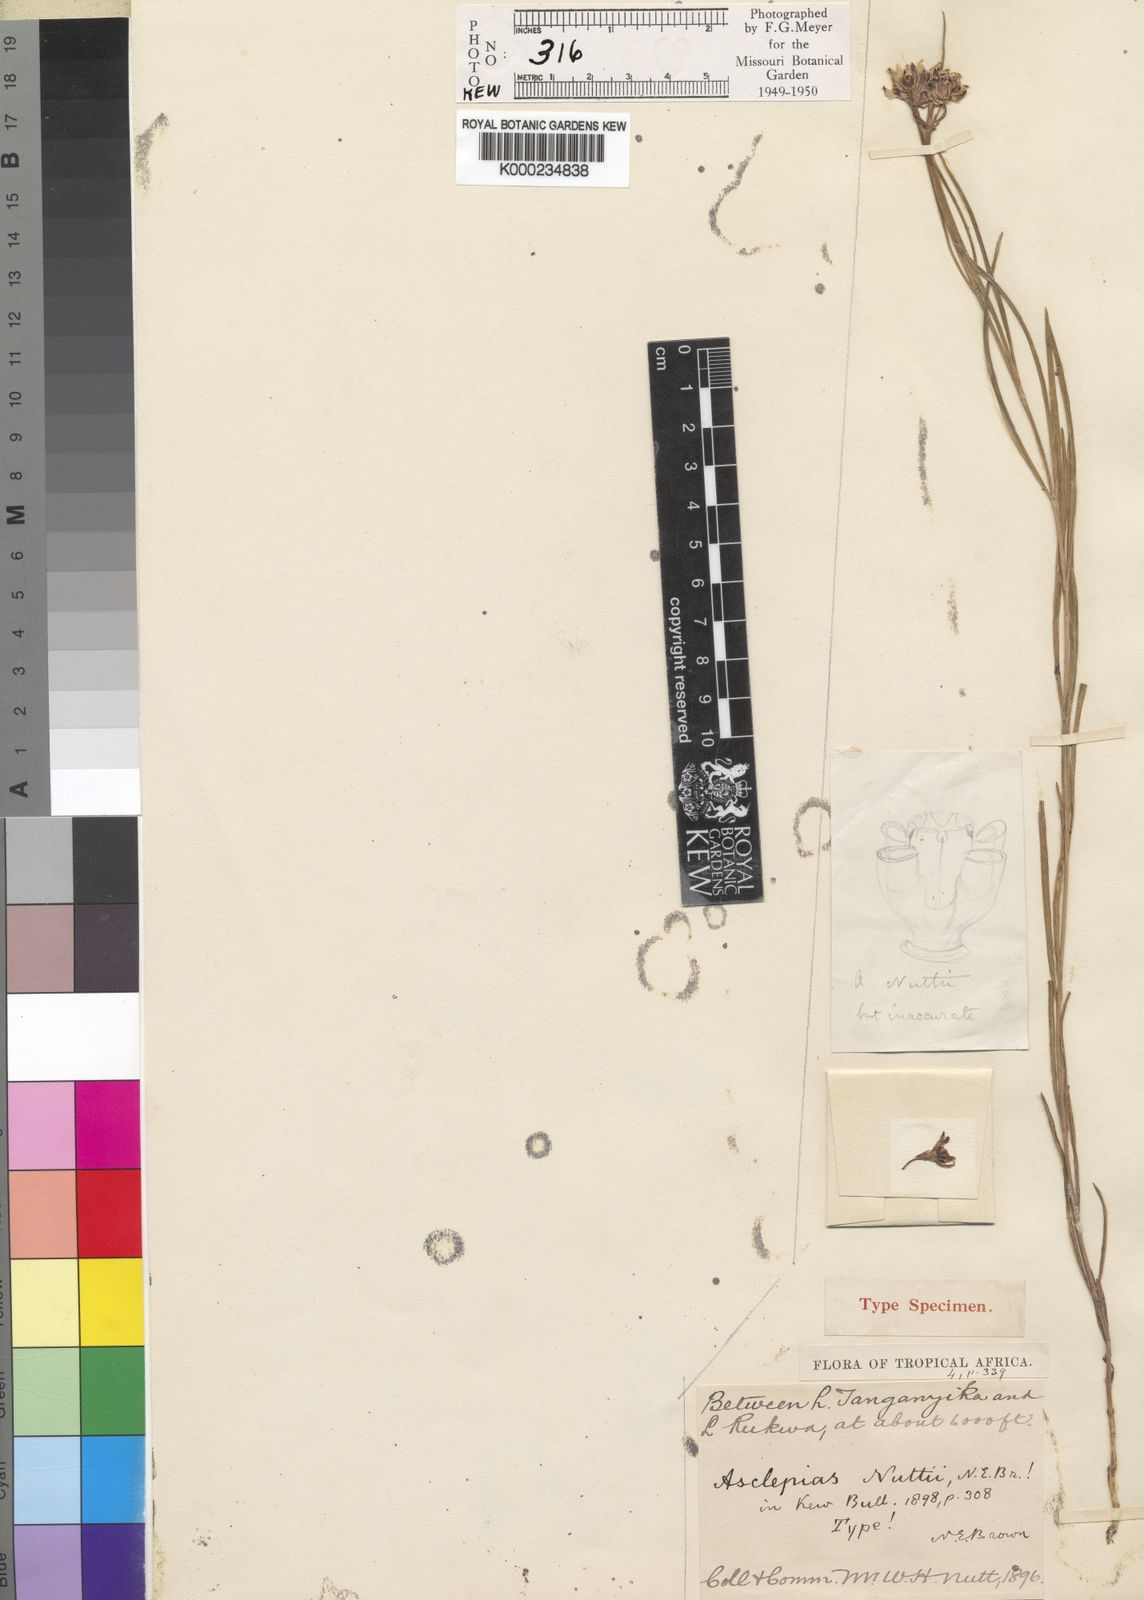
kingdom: Plantae
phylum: Tracheophyta
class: Magnoliopsida
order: Gentianales
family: Apocynaceae
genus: Asclepias
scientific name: Asclepias nuttii
